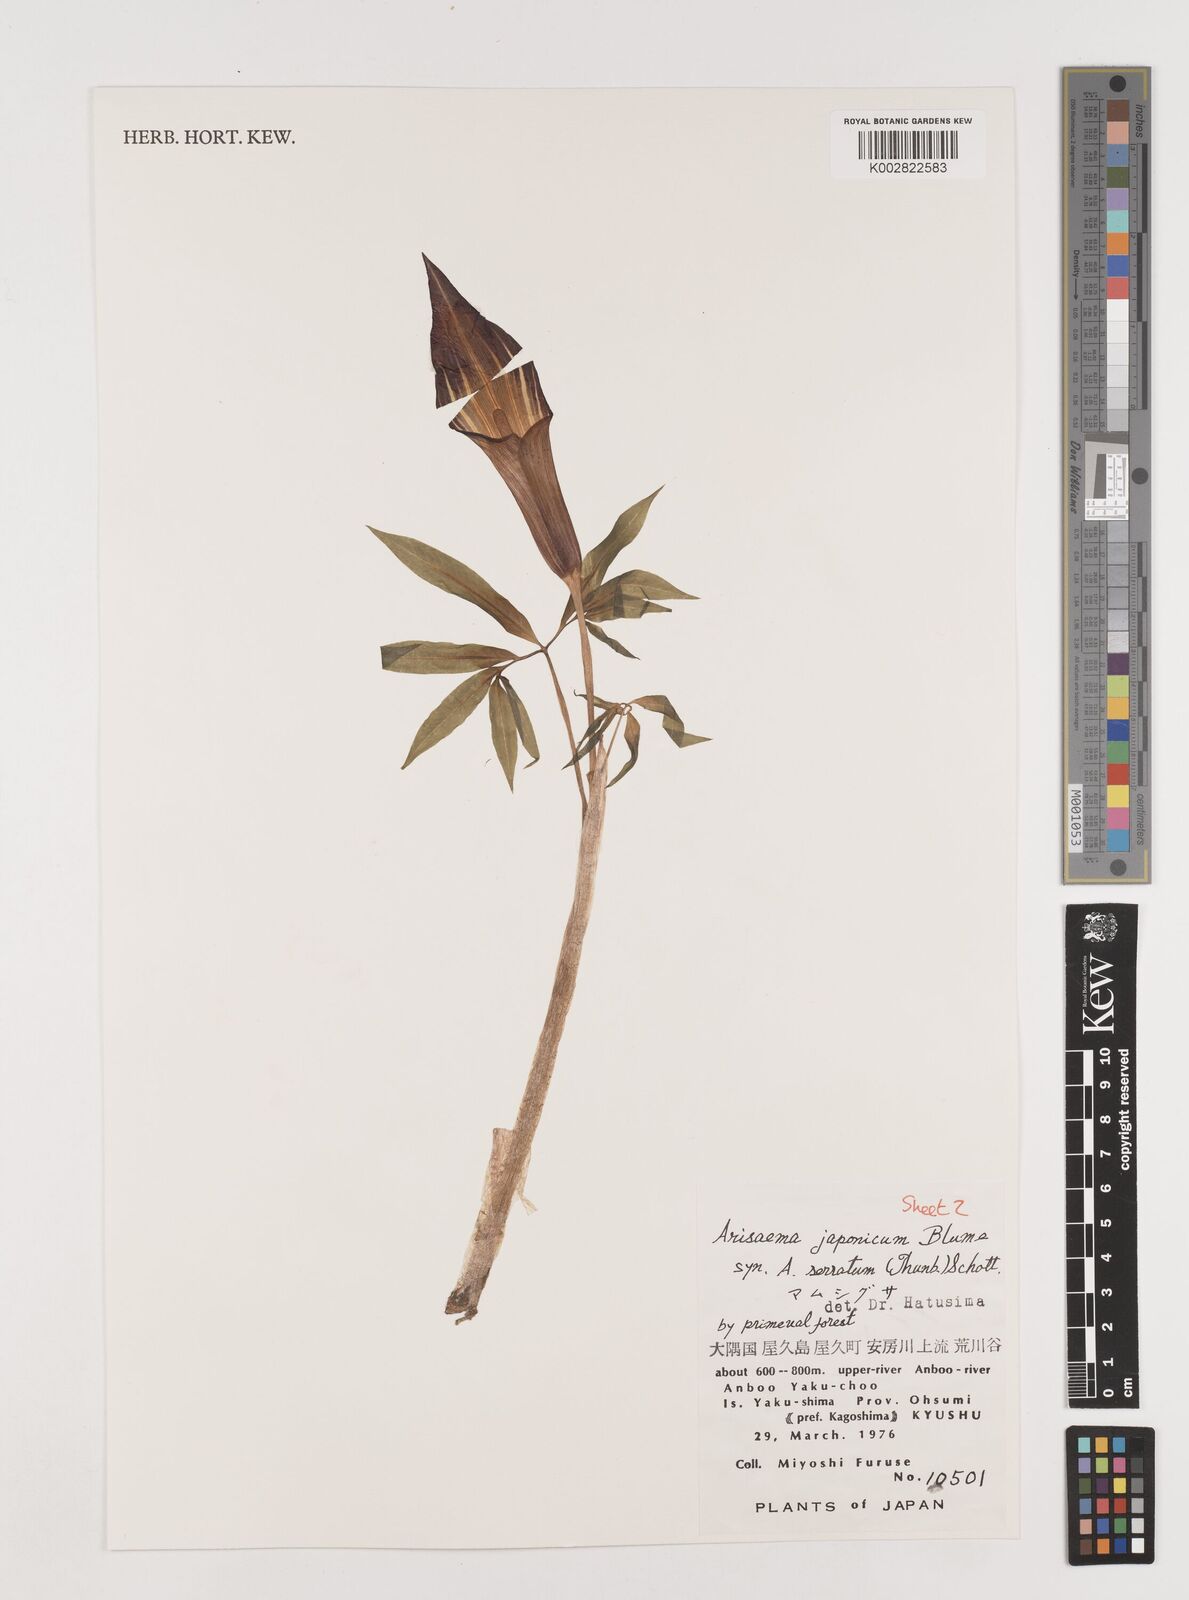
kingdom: Plantae
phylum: Tracheophyta
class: Liliopsida
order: Alismatales
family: Araceae
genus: Arisaema
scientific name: Arisaema serratum
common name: Japanese arisaema
